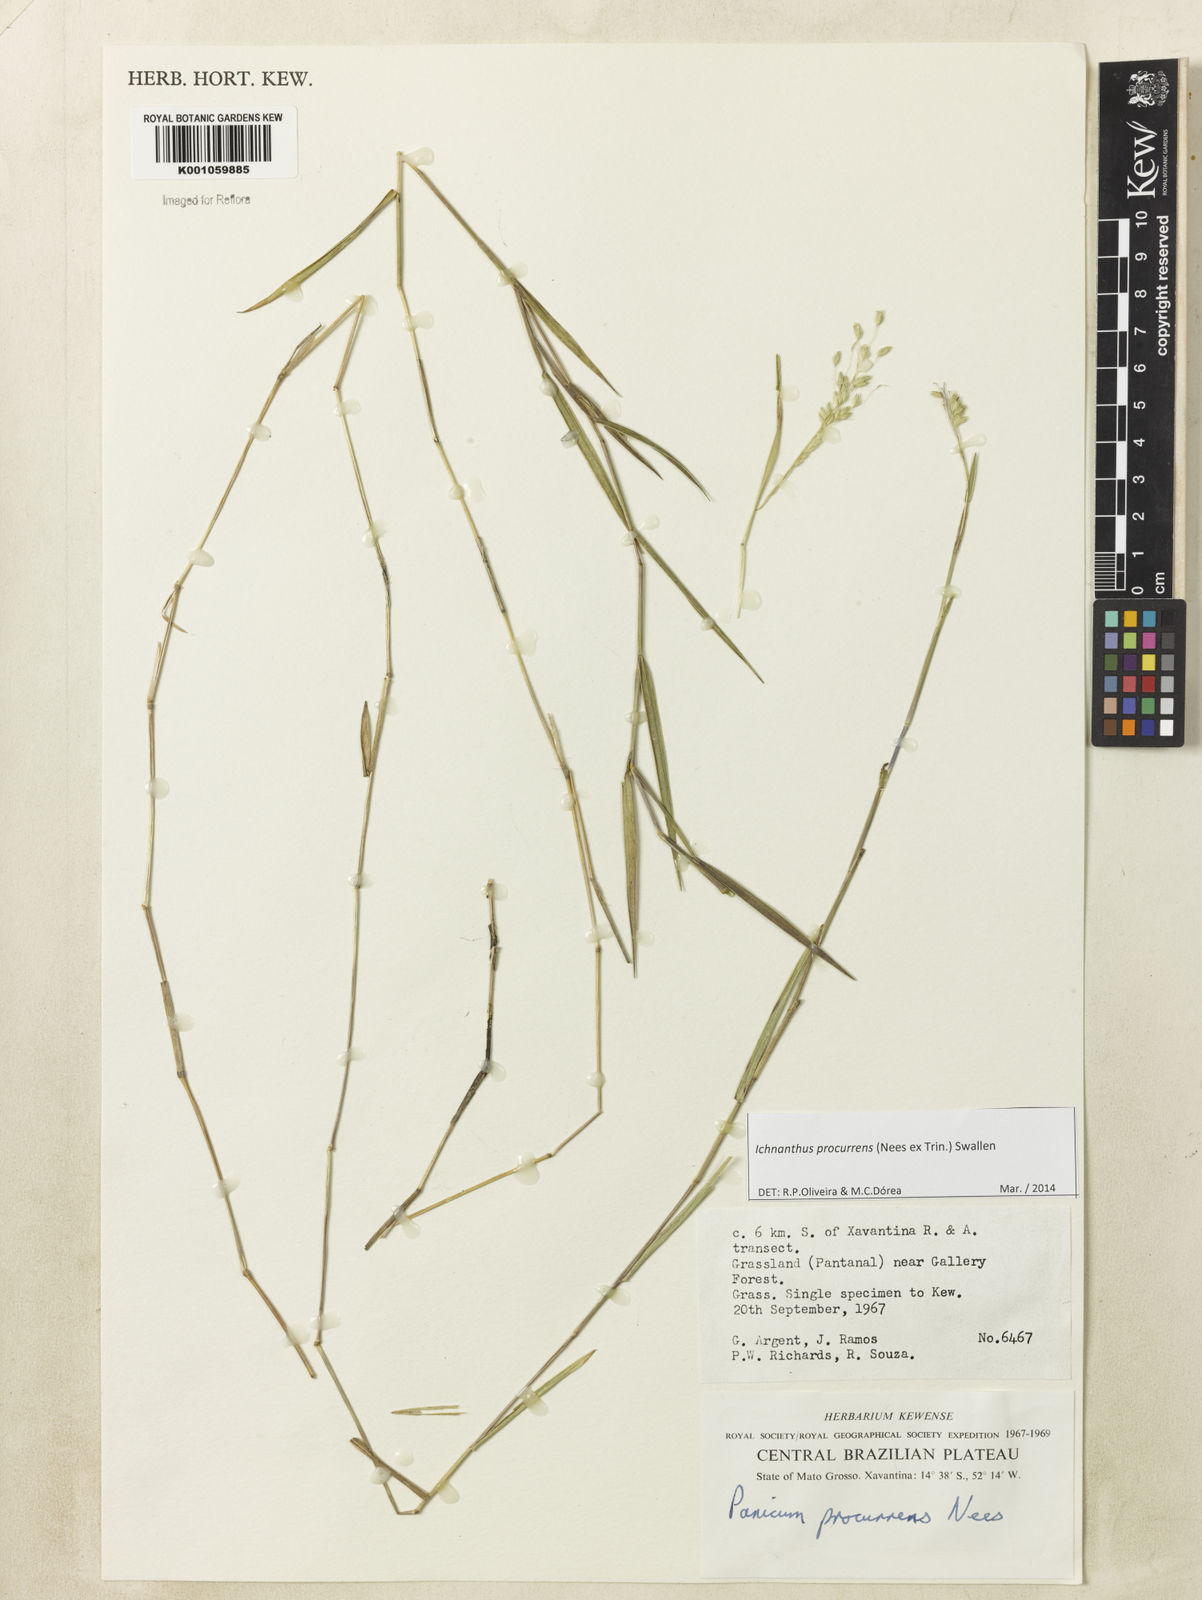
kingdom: Plantae
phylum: Tracheophyta
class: Liliopsida
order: Poales
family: Poaceae
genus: Oedochloa
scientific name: Oedochloa procurrens
